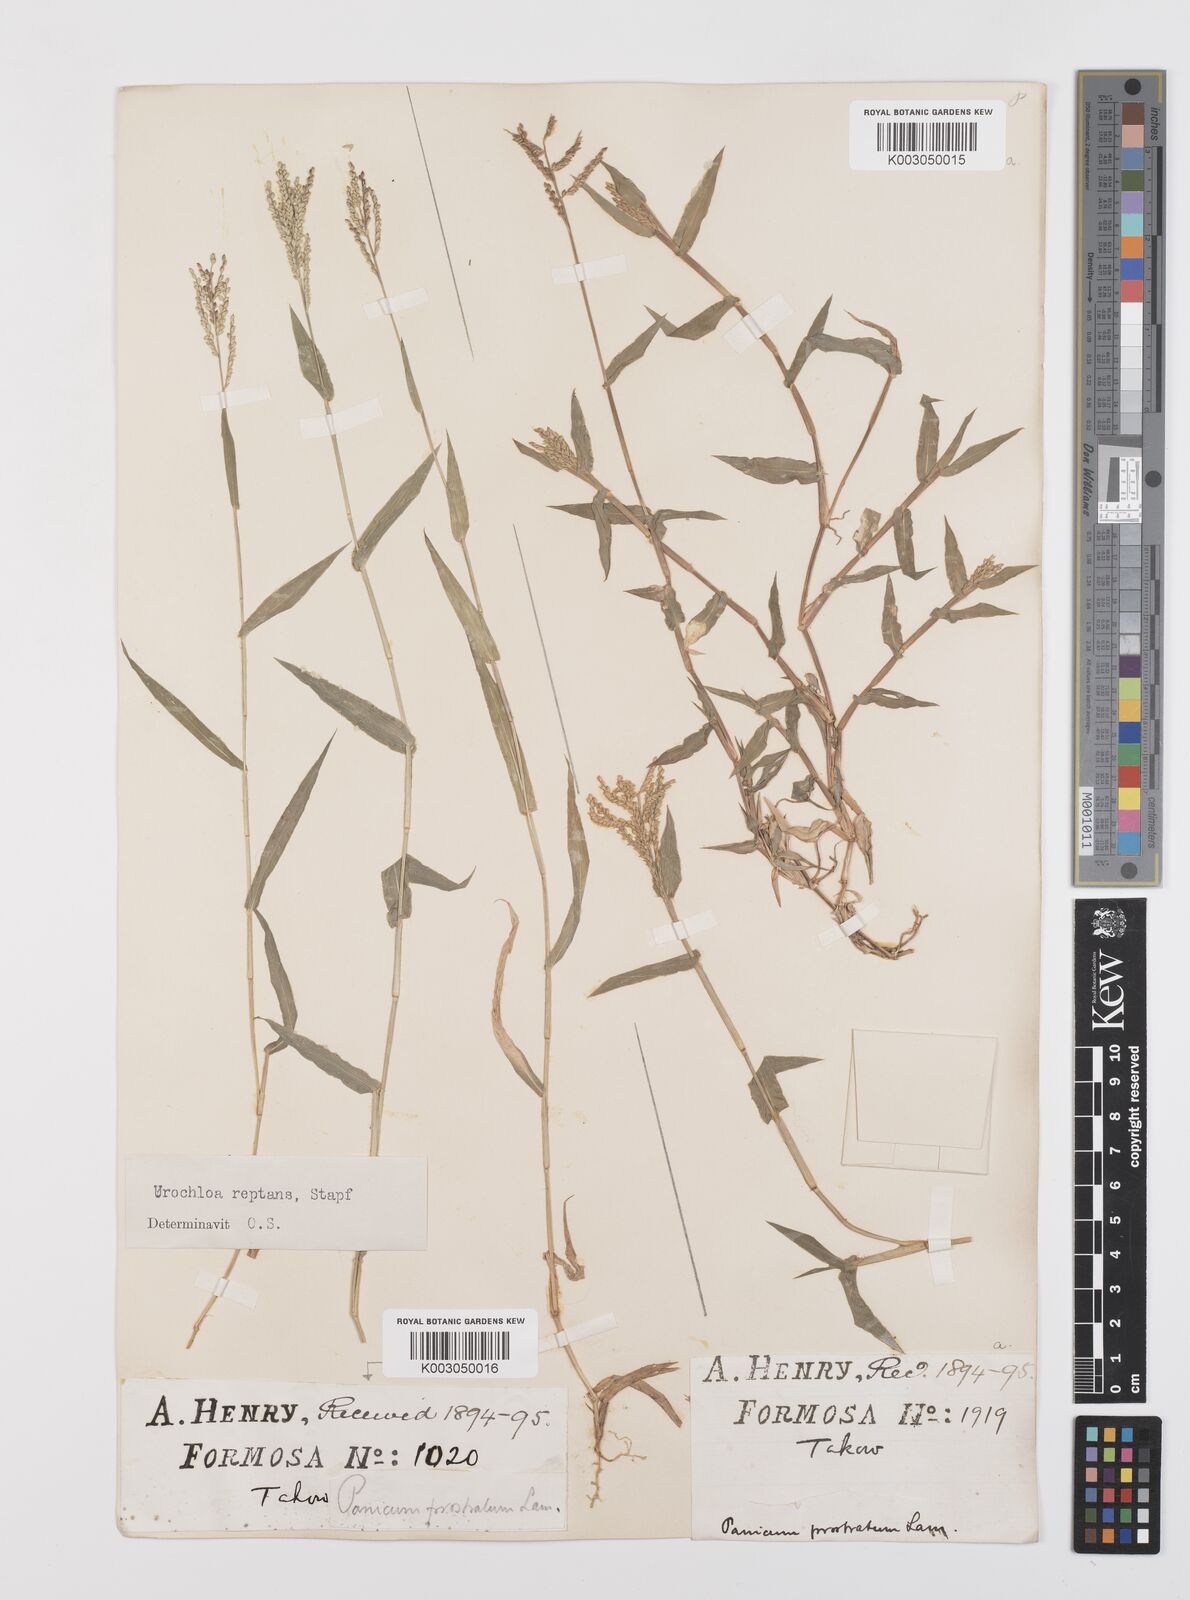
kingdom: Plantae
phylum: Tracheophyta
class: Liliopsida
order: Poales
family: Poaceae
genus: Urochloa
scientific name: Urochloa reptans
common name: Sprawling signalgrass
